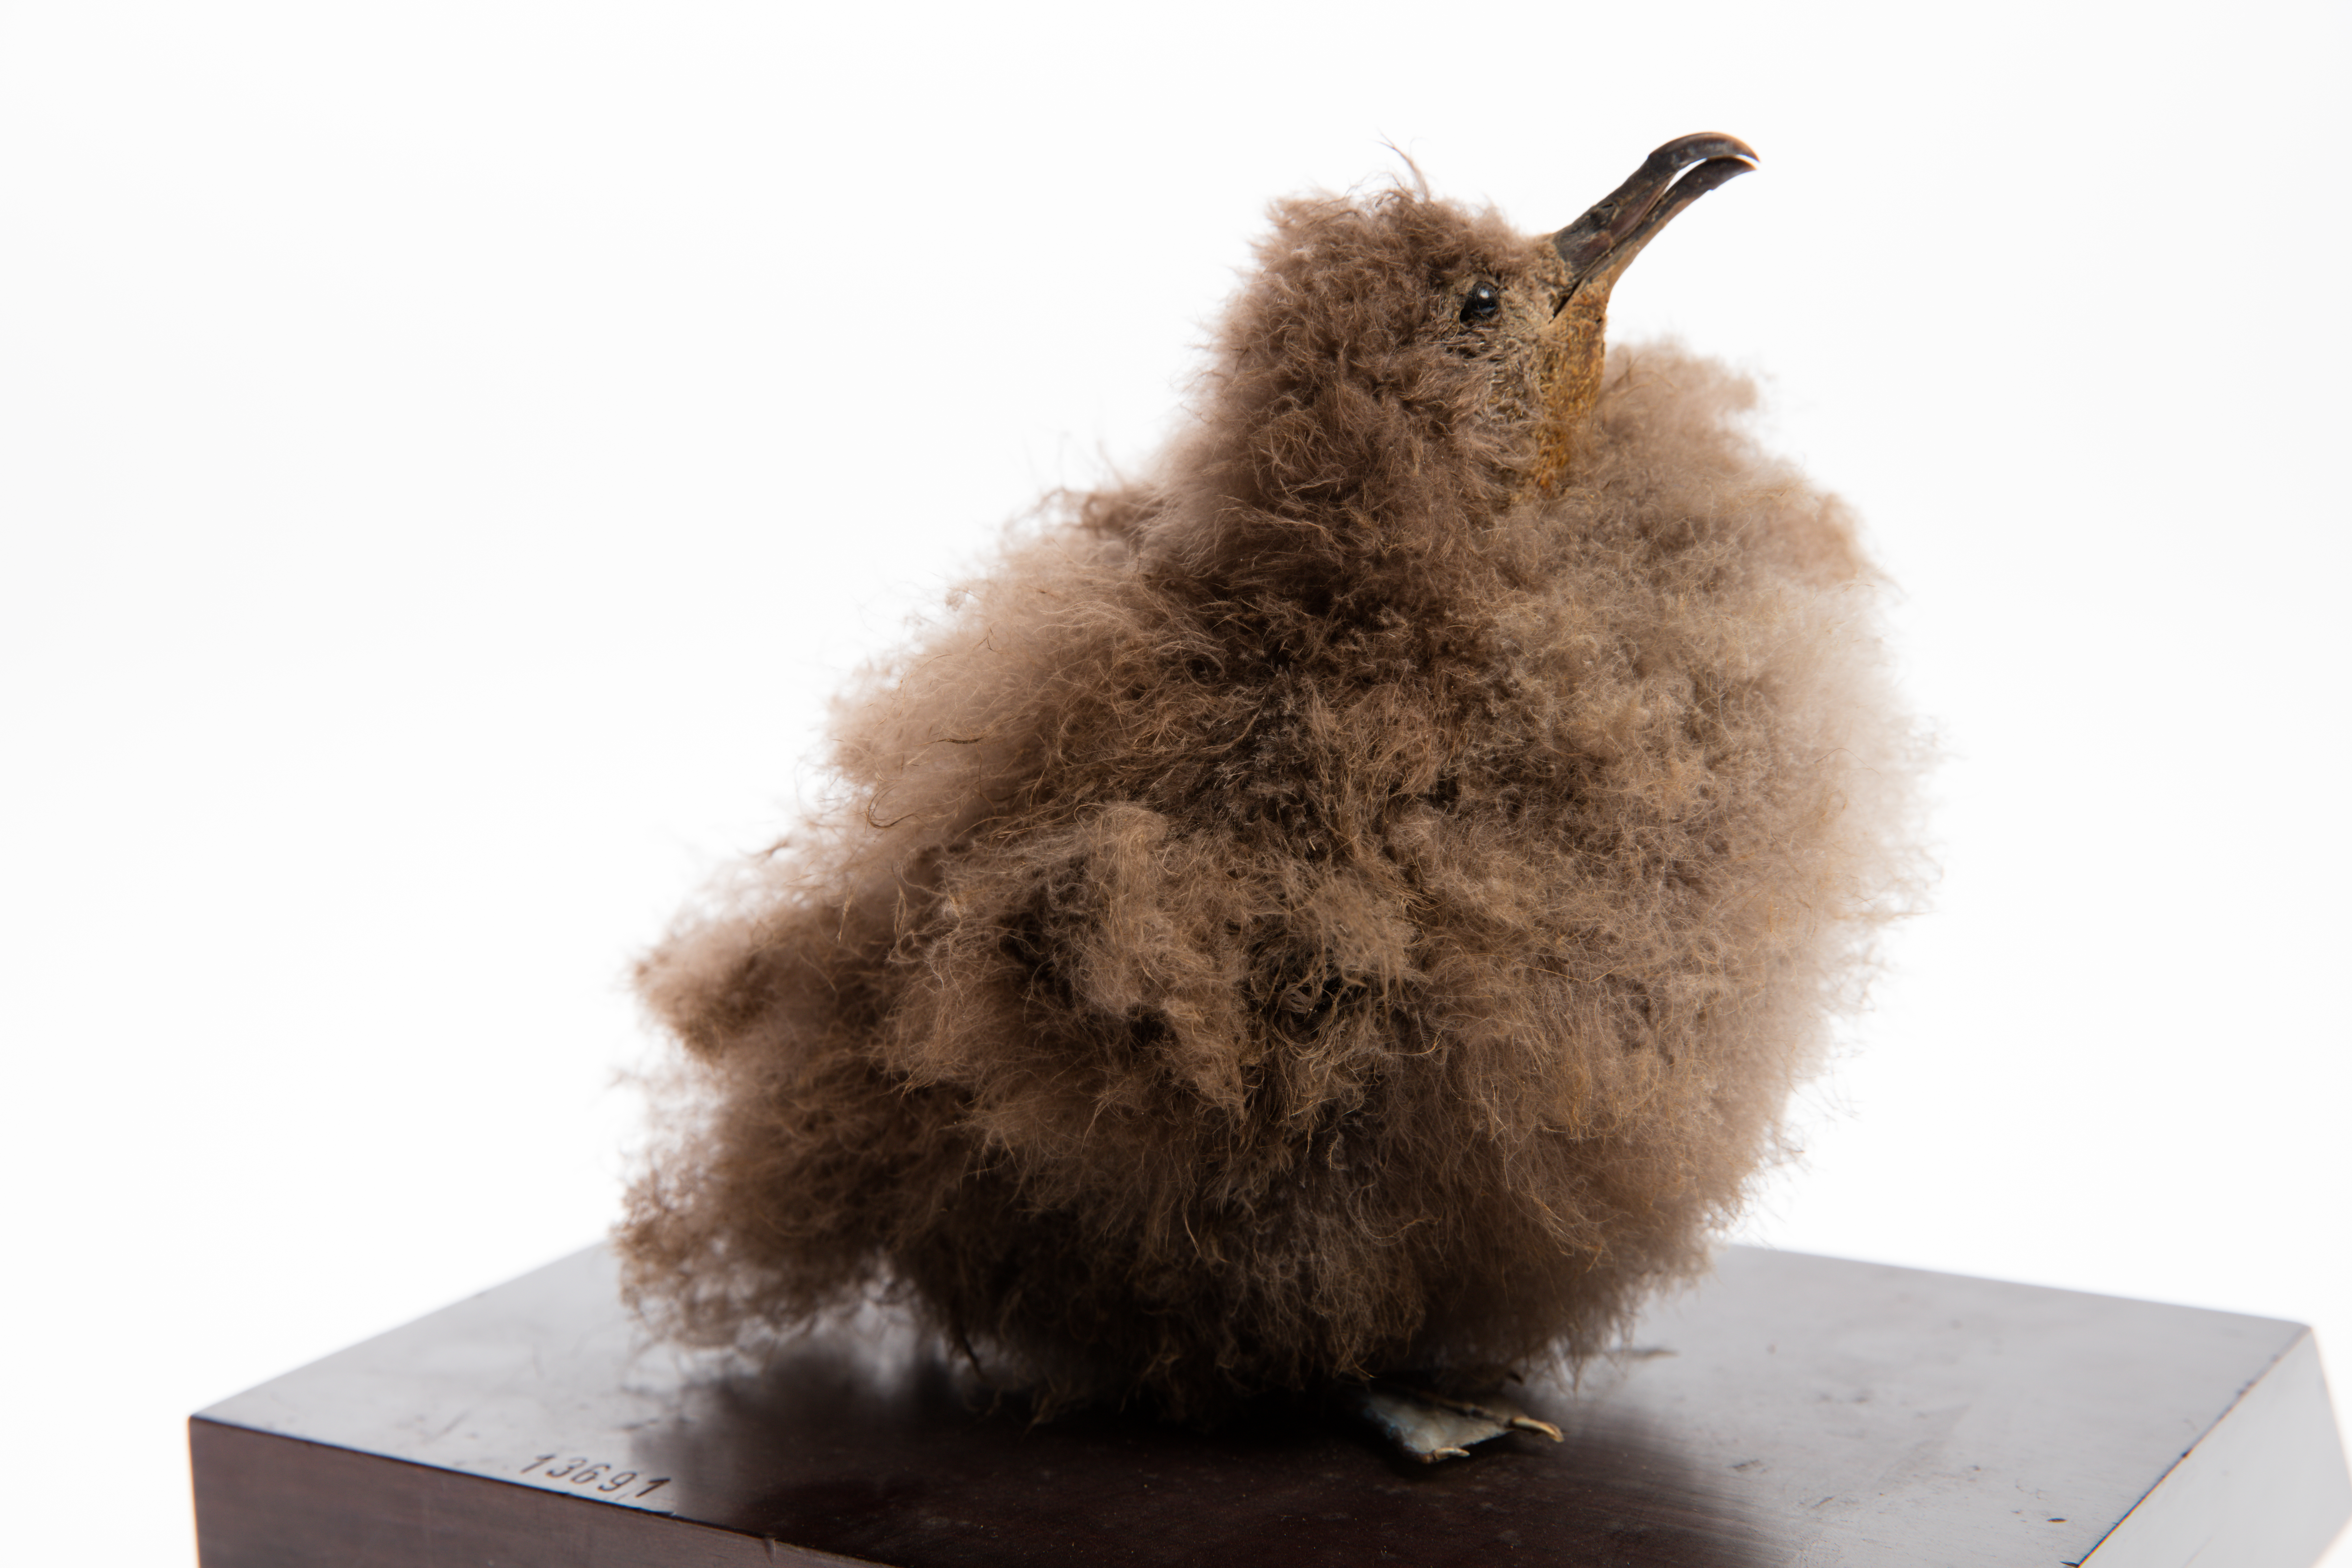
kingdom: Animalia
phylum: Chordata
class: Aves
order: Procellariiformes
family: Procellariidae
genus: Ardenna
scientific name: Ardenna
